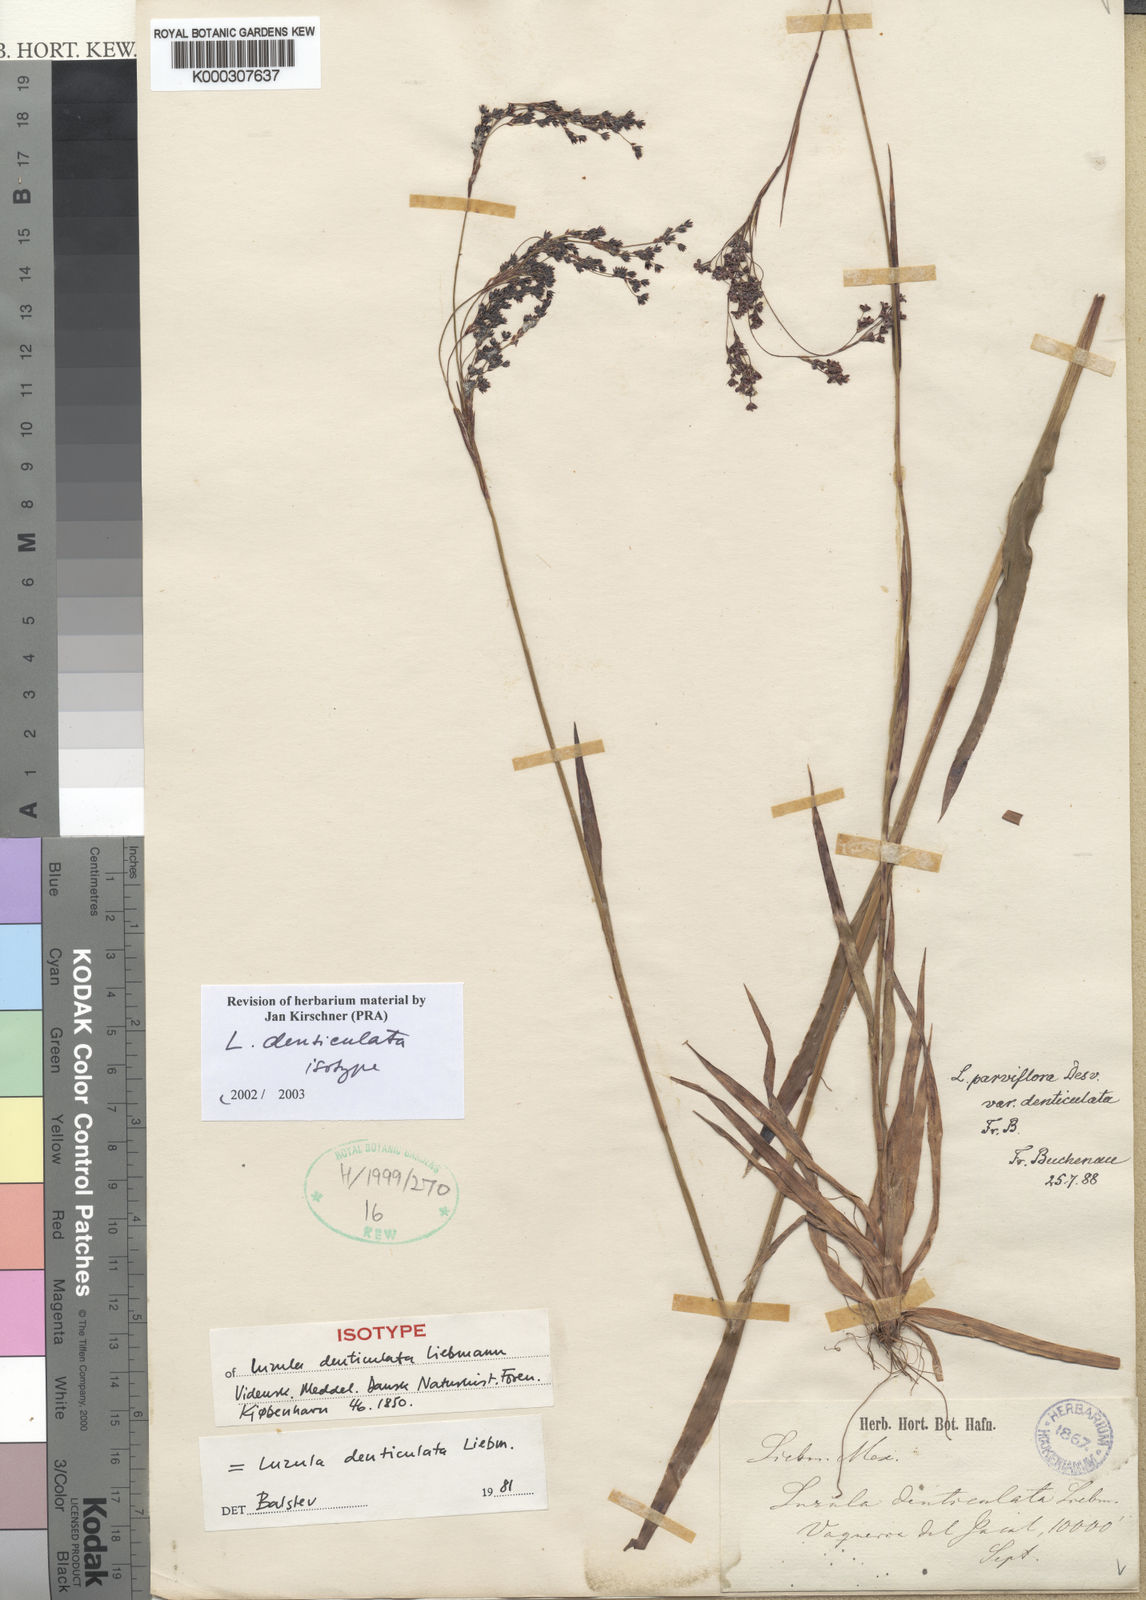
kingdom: Plantae
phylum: Tracheophyta
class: Liliopsida
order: Poales
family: Juncaceae
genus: Luzula
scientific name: Luzula gigantea
